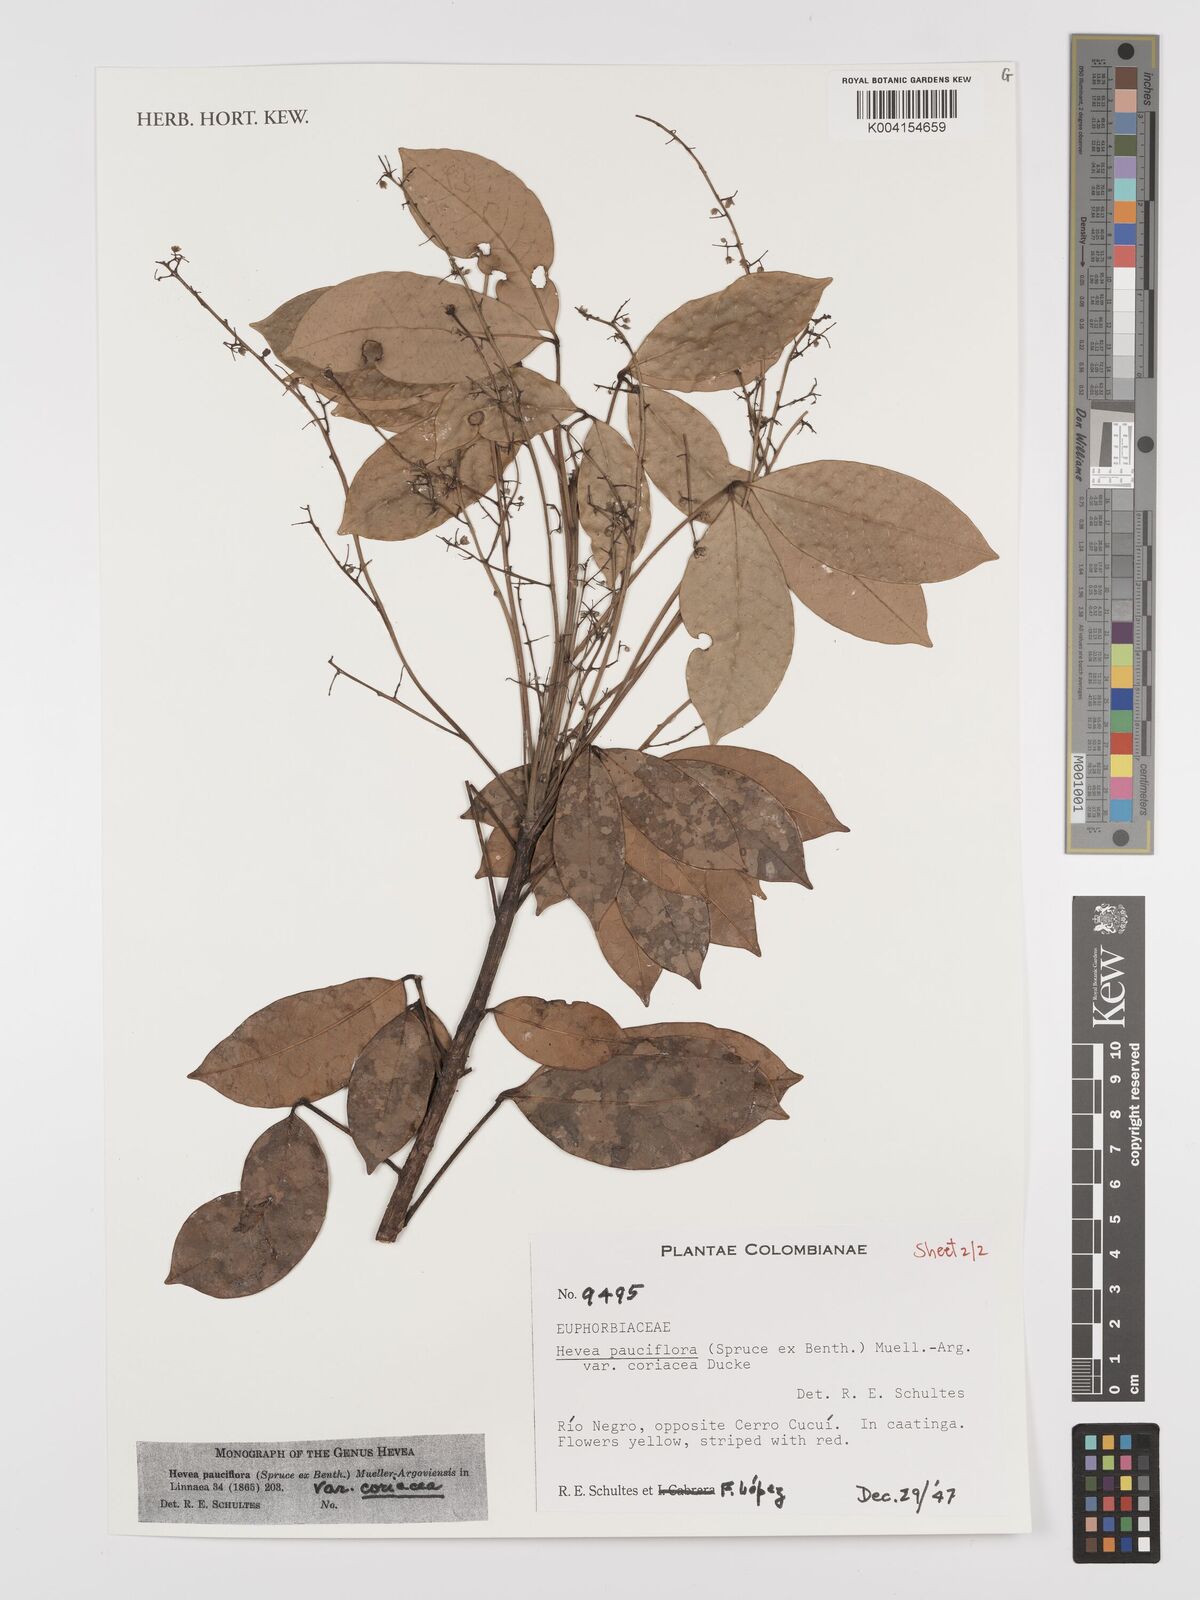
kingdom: Plantae
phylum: Tracheophyta
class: Magnoliopsida
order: Malpighiales
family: Euphorbiaceae
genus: Hevea
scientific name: Hevea pauciflora
